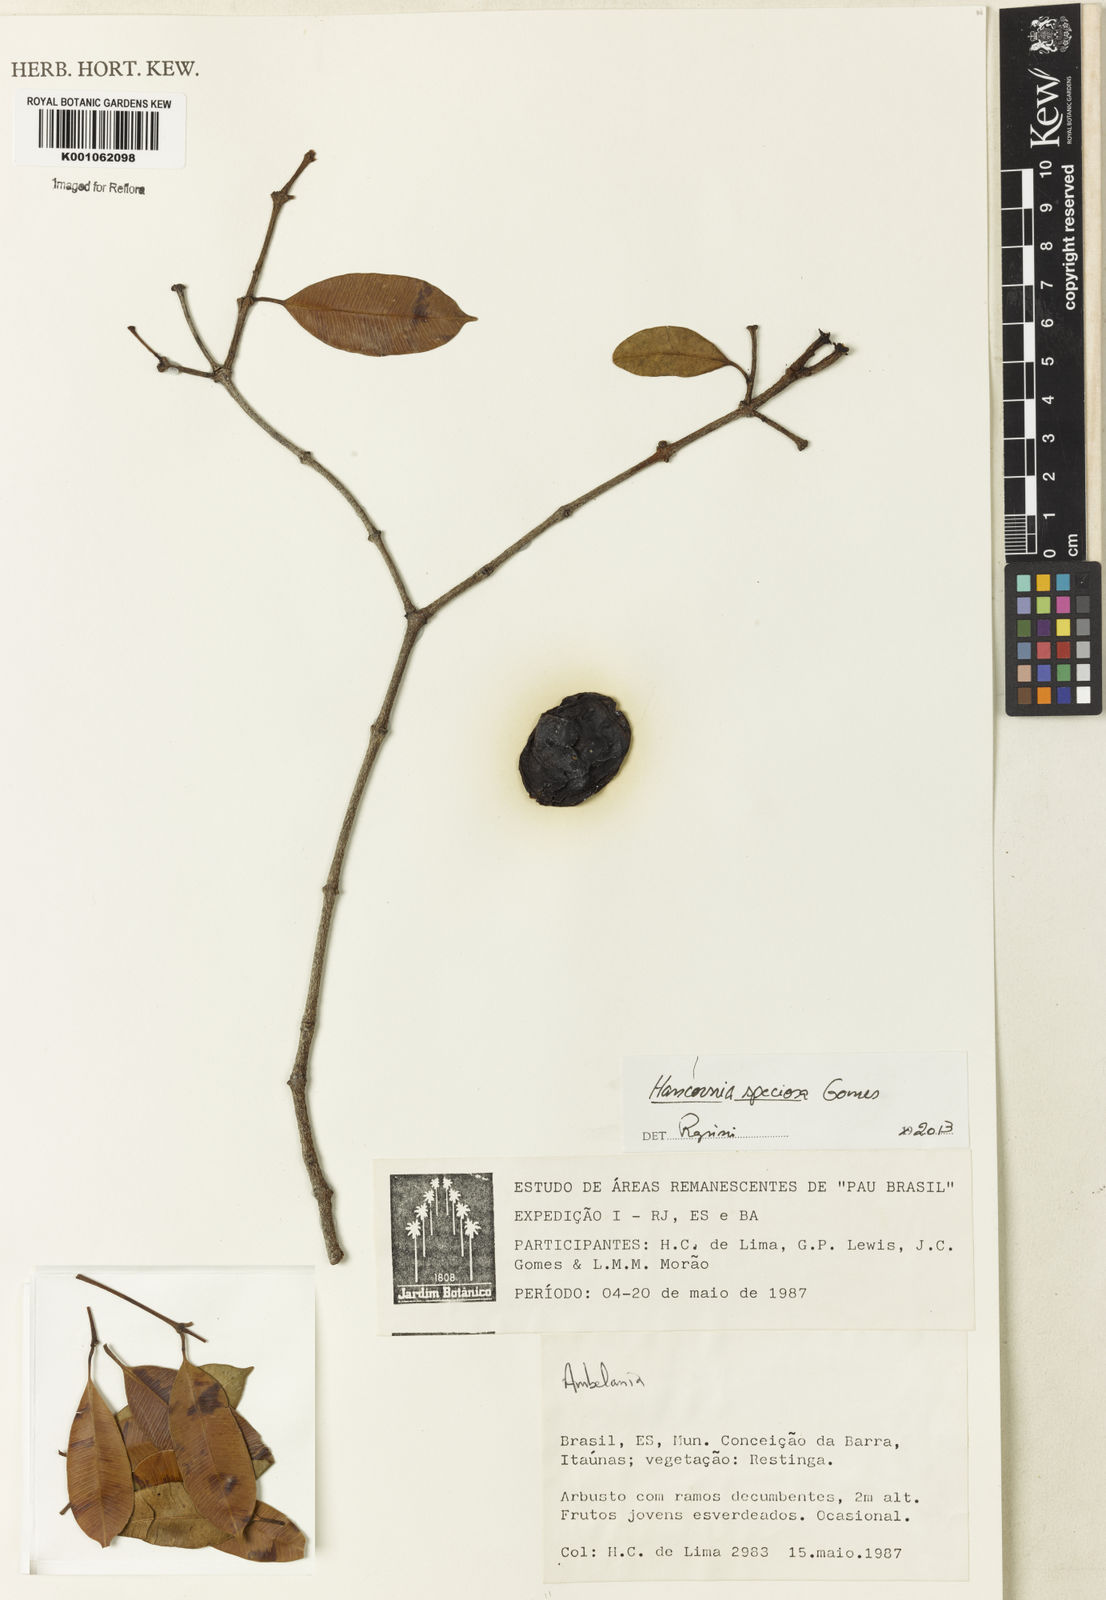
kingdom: Plantae
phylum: Tracheophyta
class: Magnoliopsida
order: Gentianales
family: Apocynaceae
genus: Hancornia
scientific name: Hancornia speciosa
